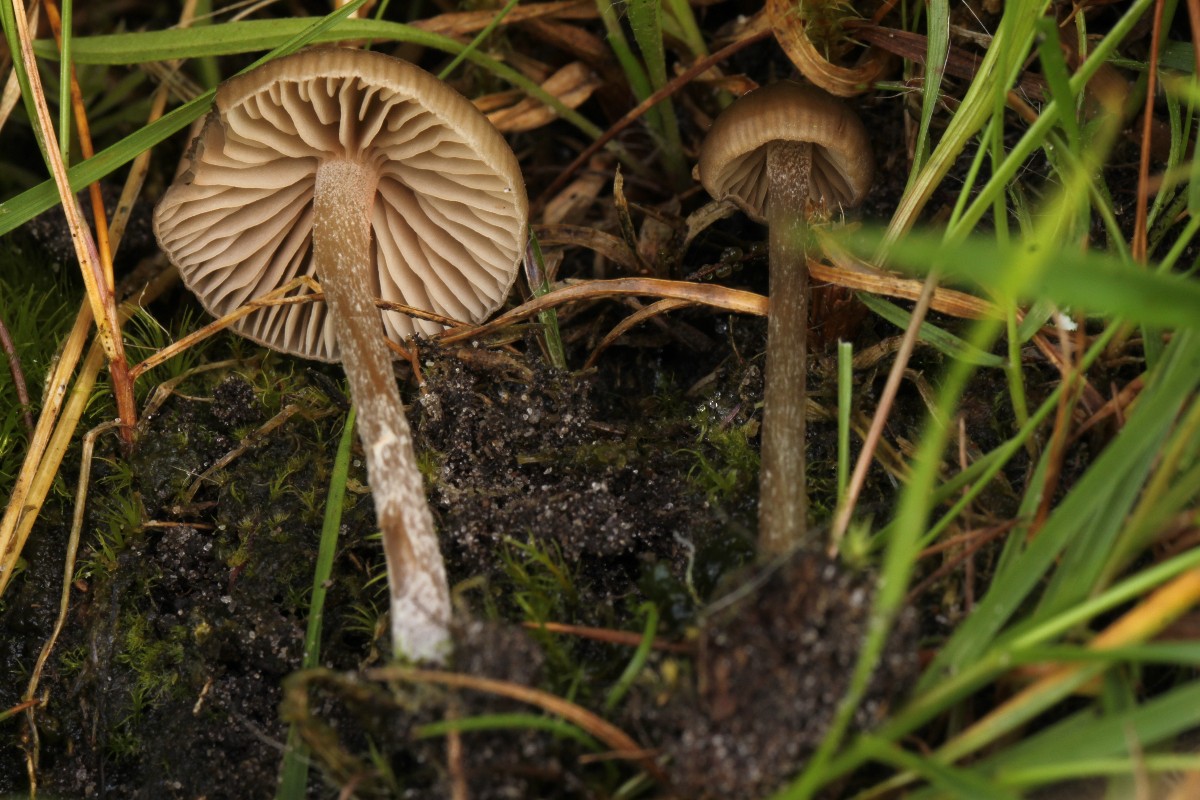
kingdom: Fungi
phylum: Basidiomycota
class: Agaricomycetes
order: Agaricales
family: Entolomataceae
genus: Entoloma
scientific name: Entoloma clandestinum
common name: tykbladet rødblad
